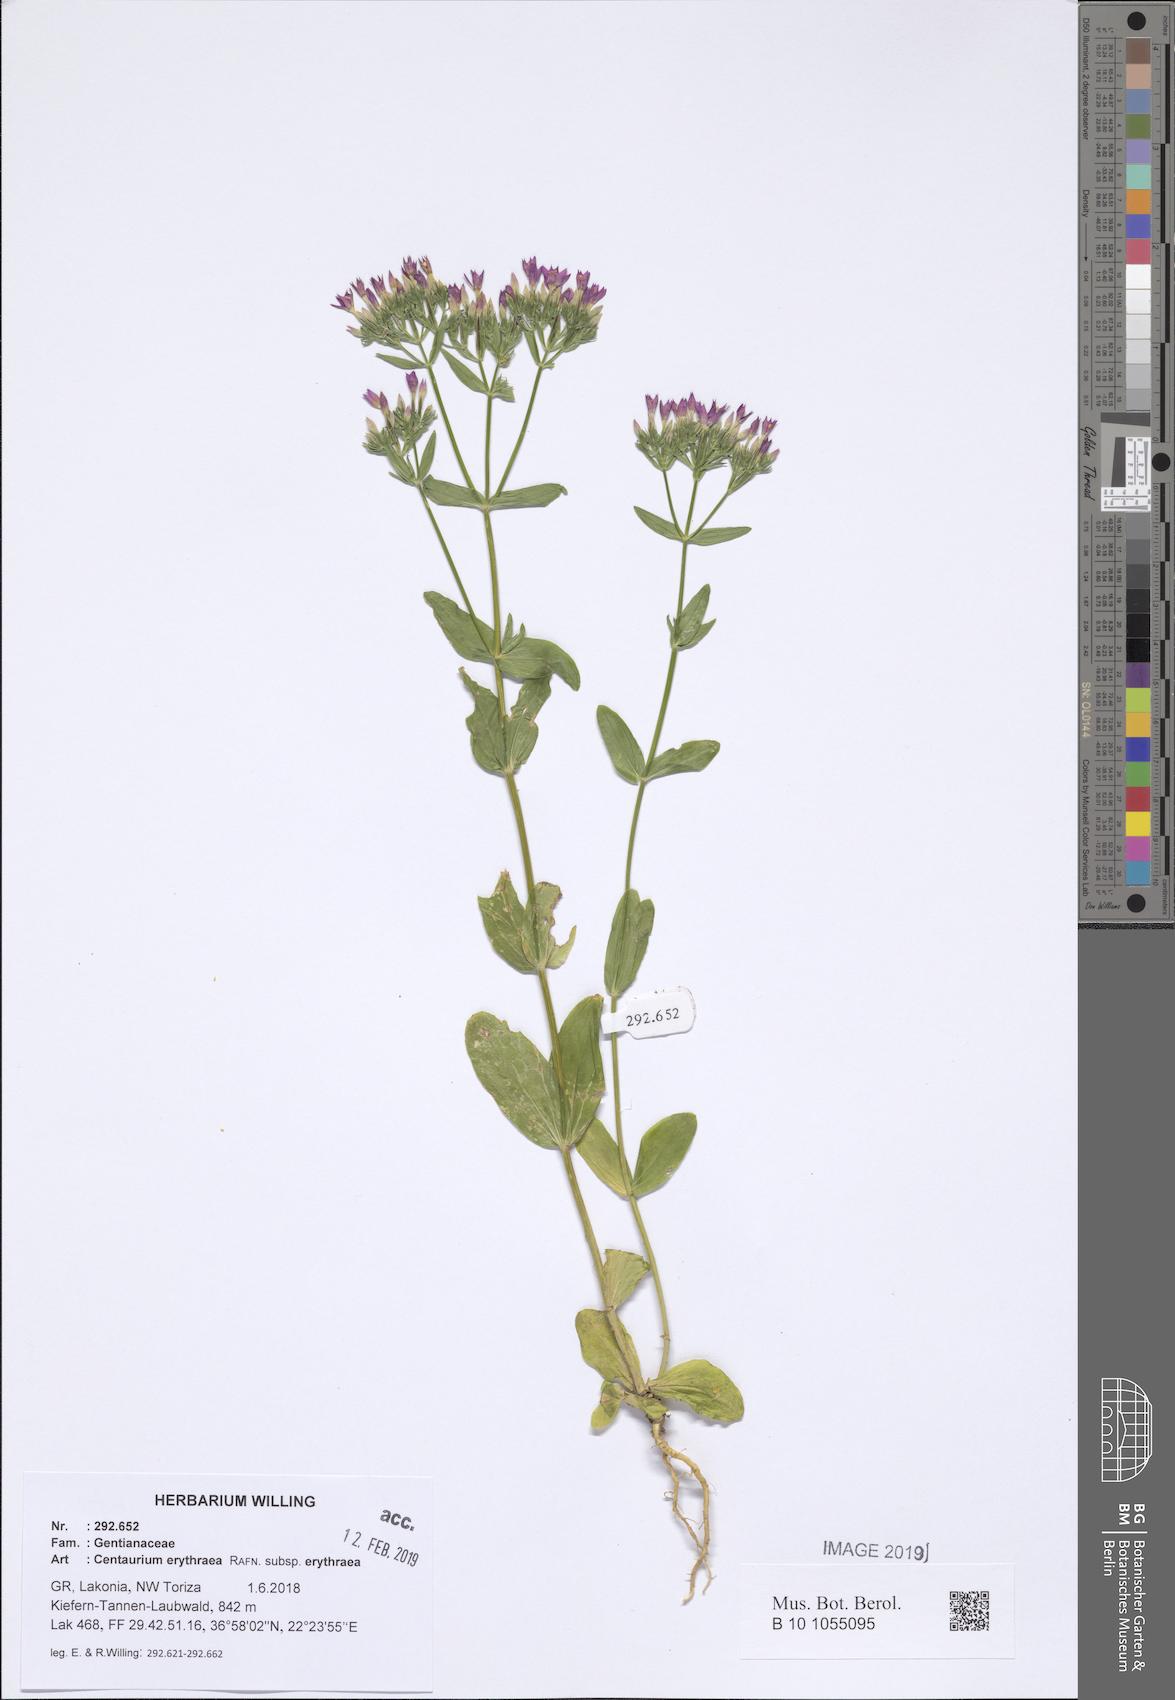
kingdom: Plantae
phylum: Tracheophyta
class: Magnoliopsida
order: Gentianales
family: Gentianaceae
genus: Centaurium
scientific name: Centaurium erythraea
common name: Common centaury
